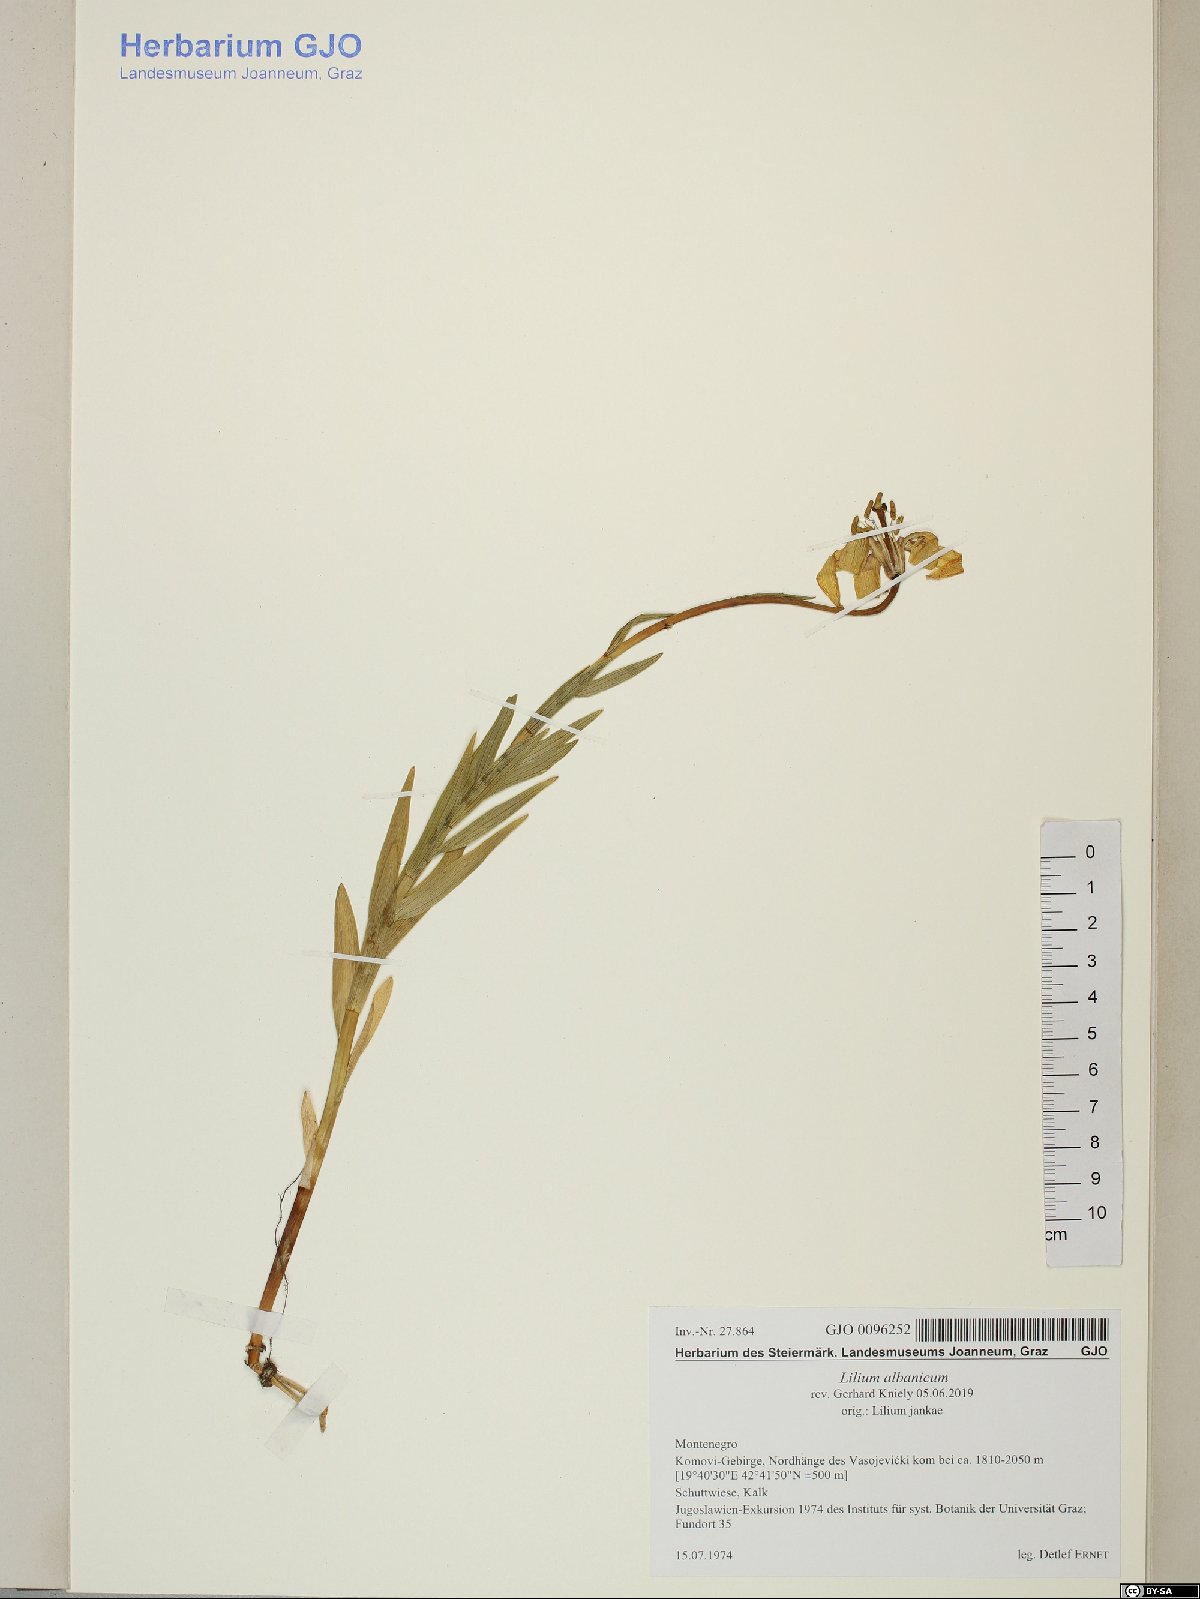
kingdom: Plantae
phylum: Tracheophyta
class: Liliopsida
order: Liliales
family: Liliaceae
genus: Lilium
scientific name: Lilium albanicum
